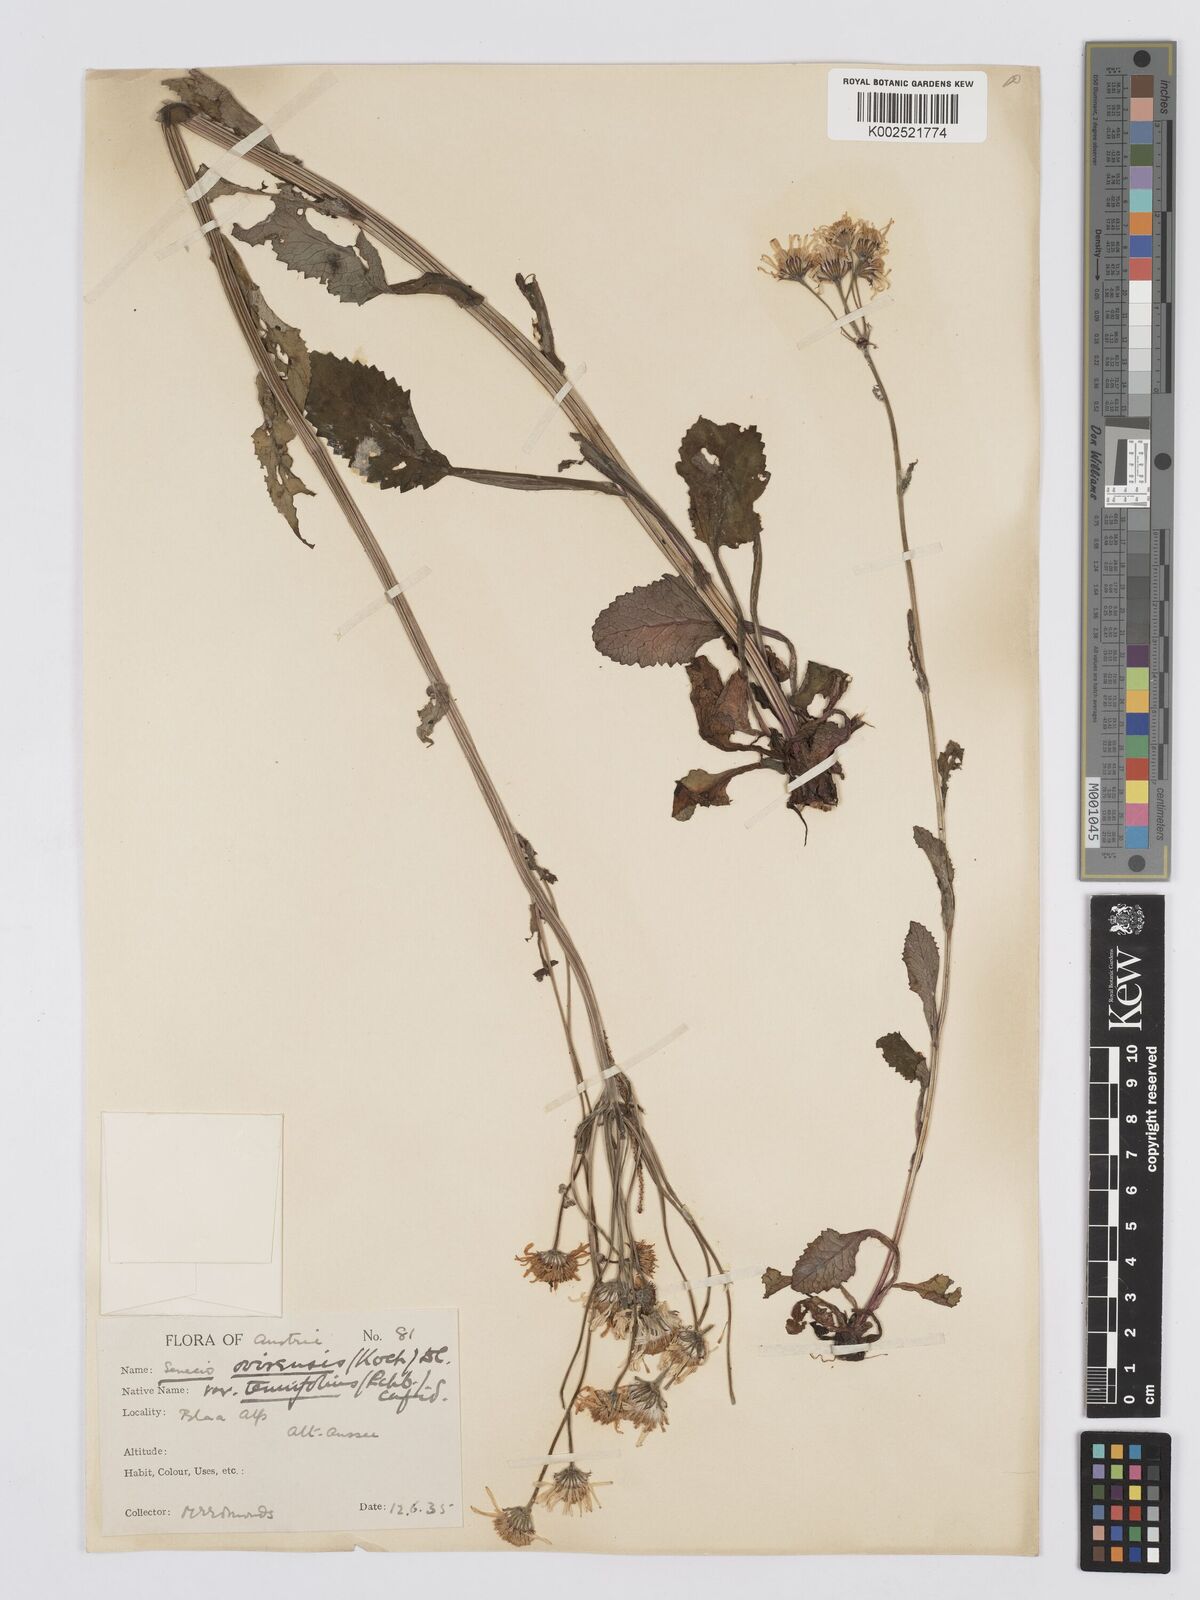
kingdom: Plantae
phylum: Tracheophyta
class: Magnoliopsida
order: Asterales
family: Asteraceae
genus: Tephroseris
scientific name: Tephroseris crispa
